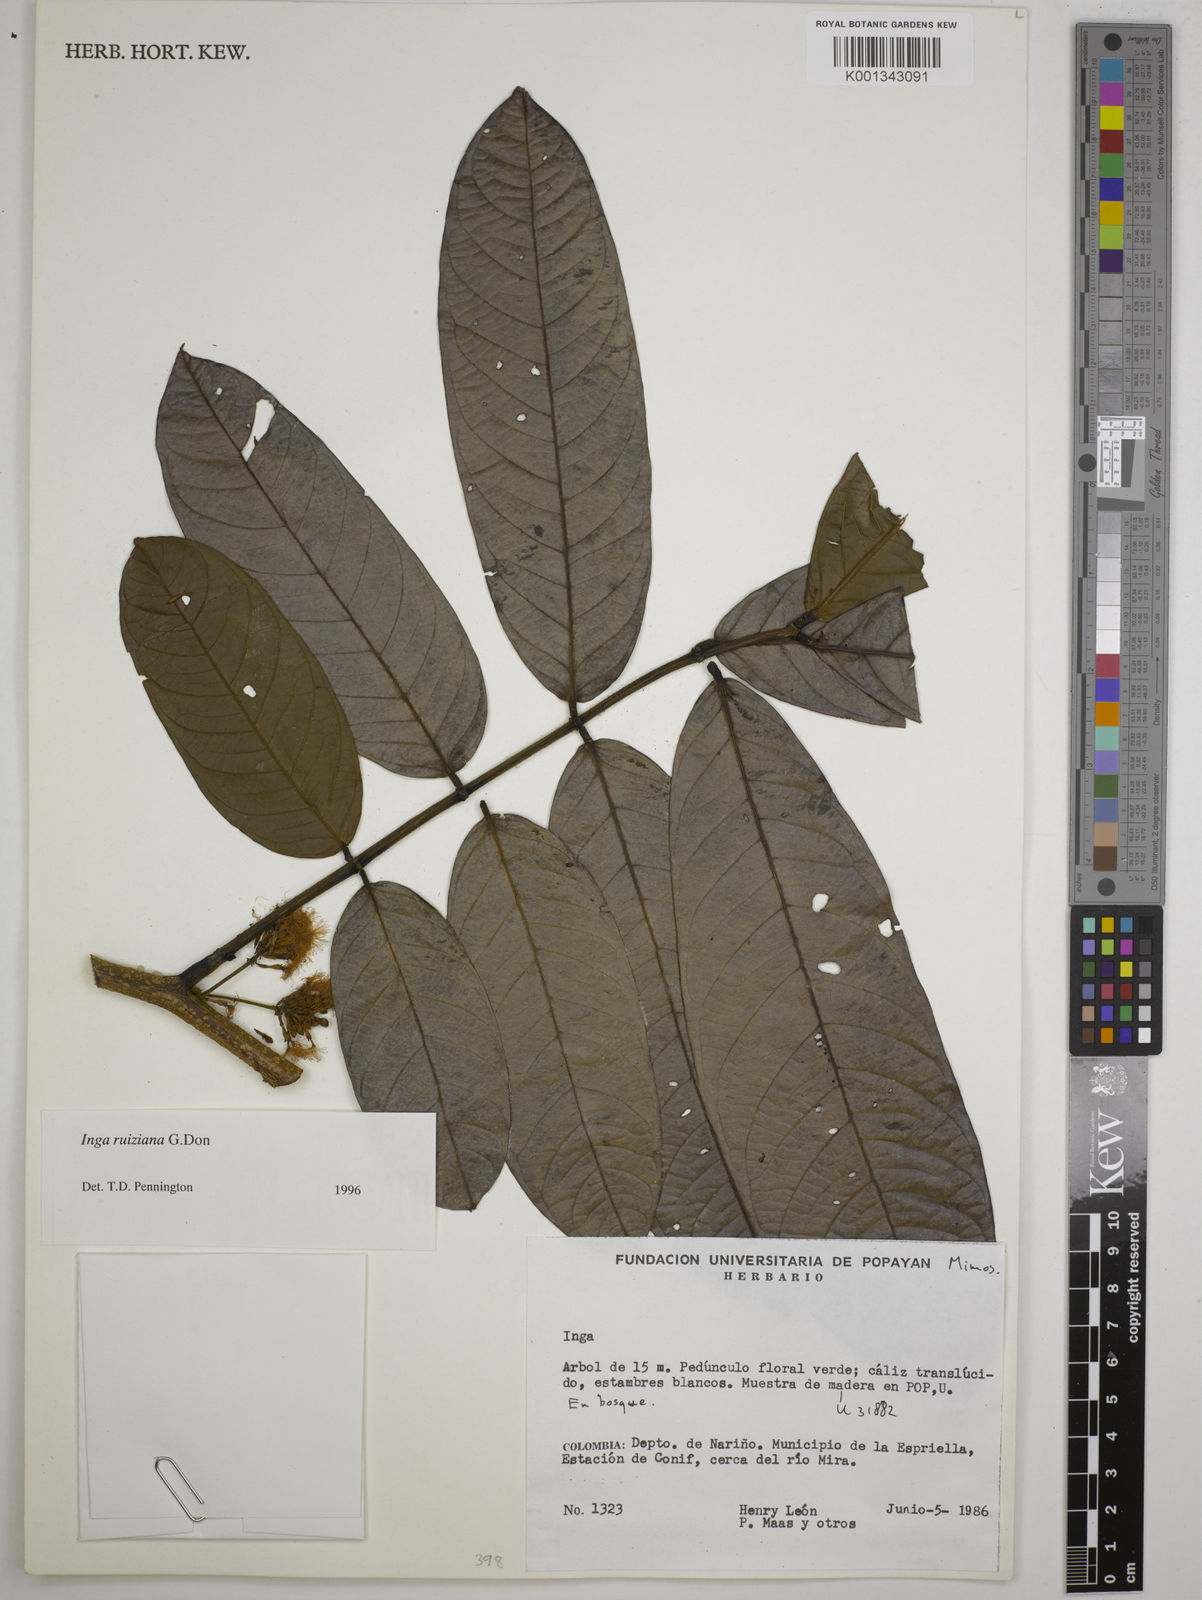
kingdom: Plantae
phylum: Tracheophyta
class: Magnoliopsida
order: Fabales
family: Fabaceae
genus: Inga
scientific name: Inga ruiziana
